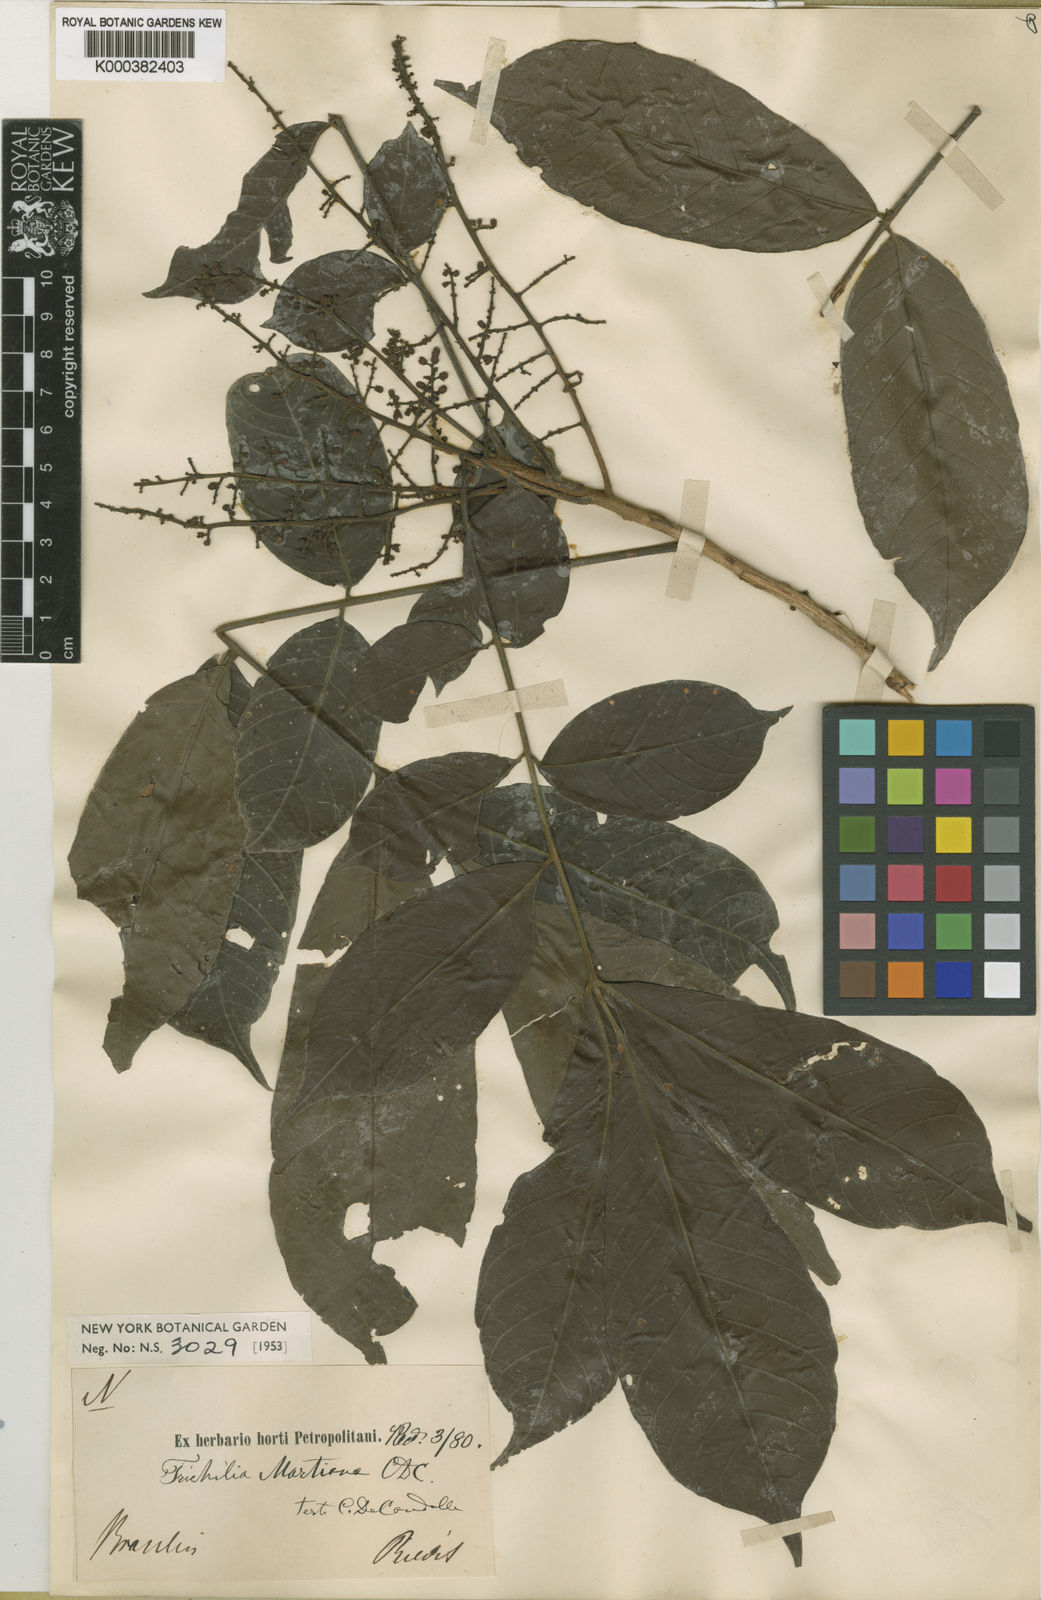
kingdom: Plantae
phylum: Tracheophyta
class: Magnoliopsida
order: Sapindales
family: Meliaceae
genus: Trichilia
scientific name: Trichilia martiana
